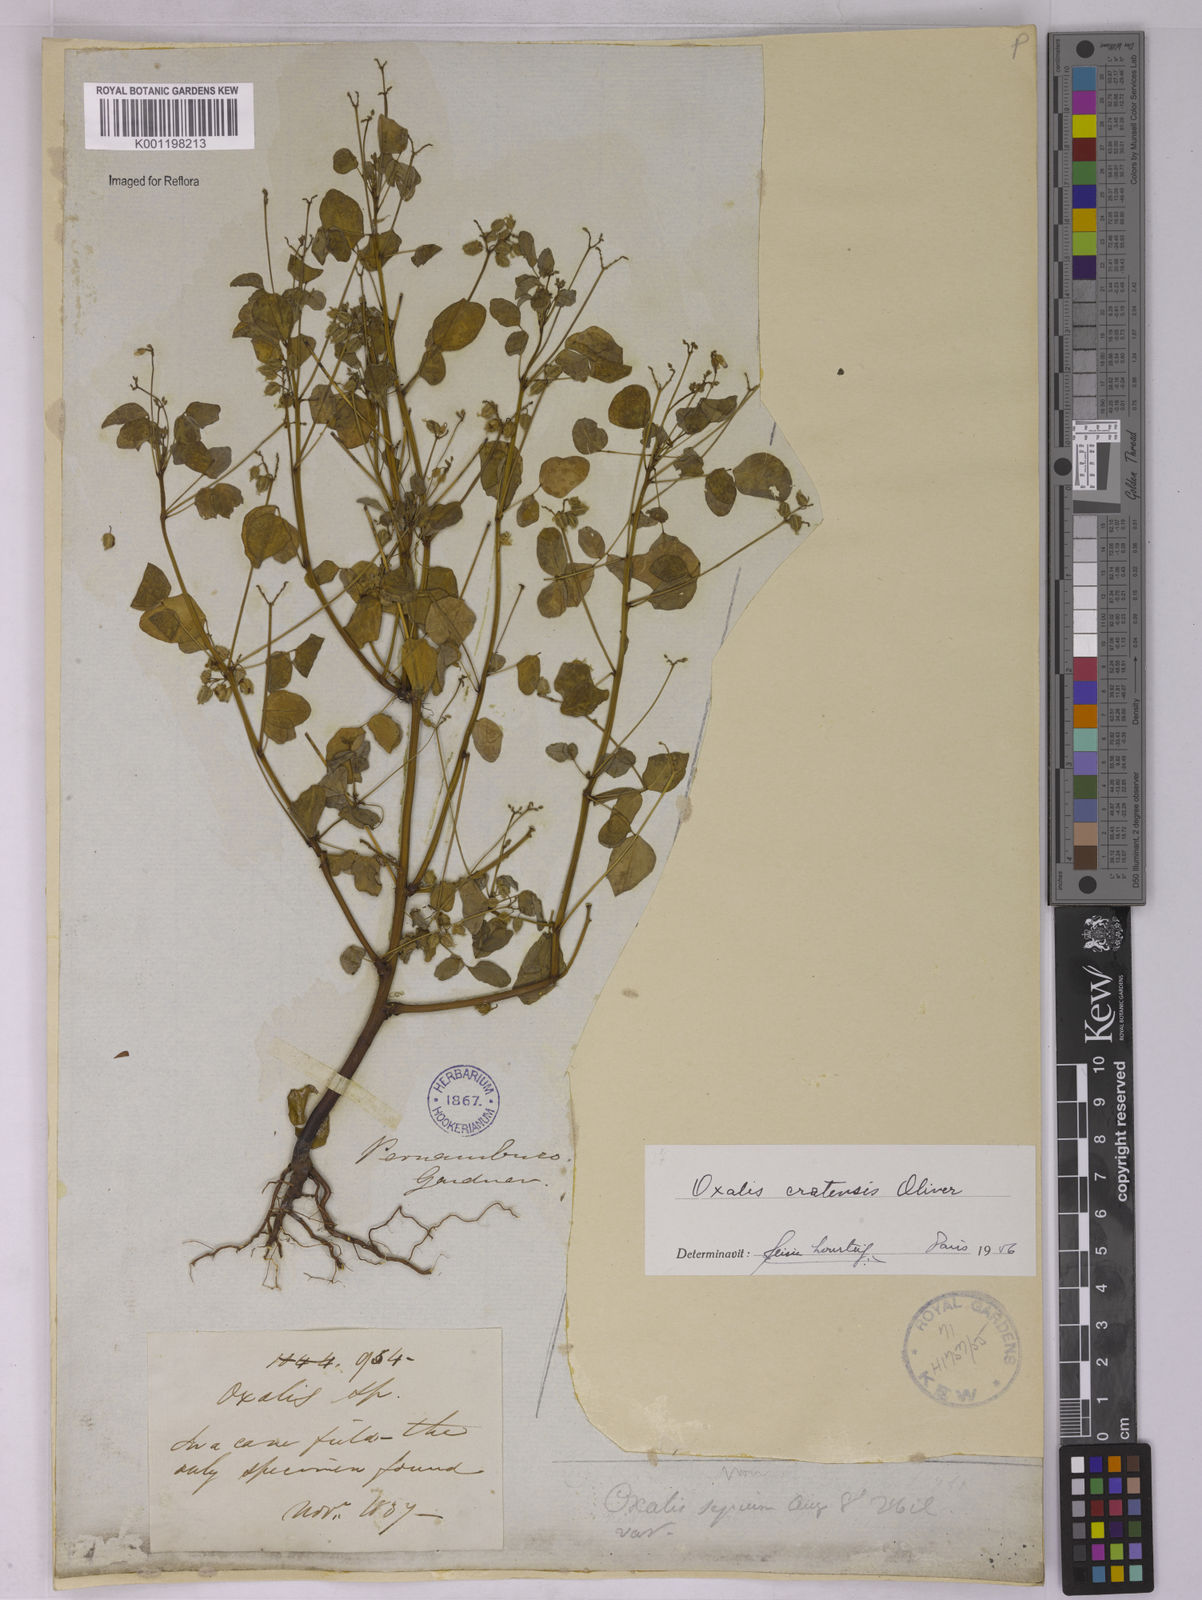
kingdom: Plantae
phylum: Tracheophyta
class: Magnoliopsida
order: Oxalidales
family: Oxalidaceae
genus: Oxalis
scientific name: Oxalis cratensis
